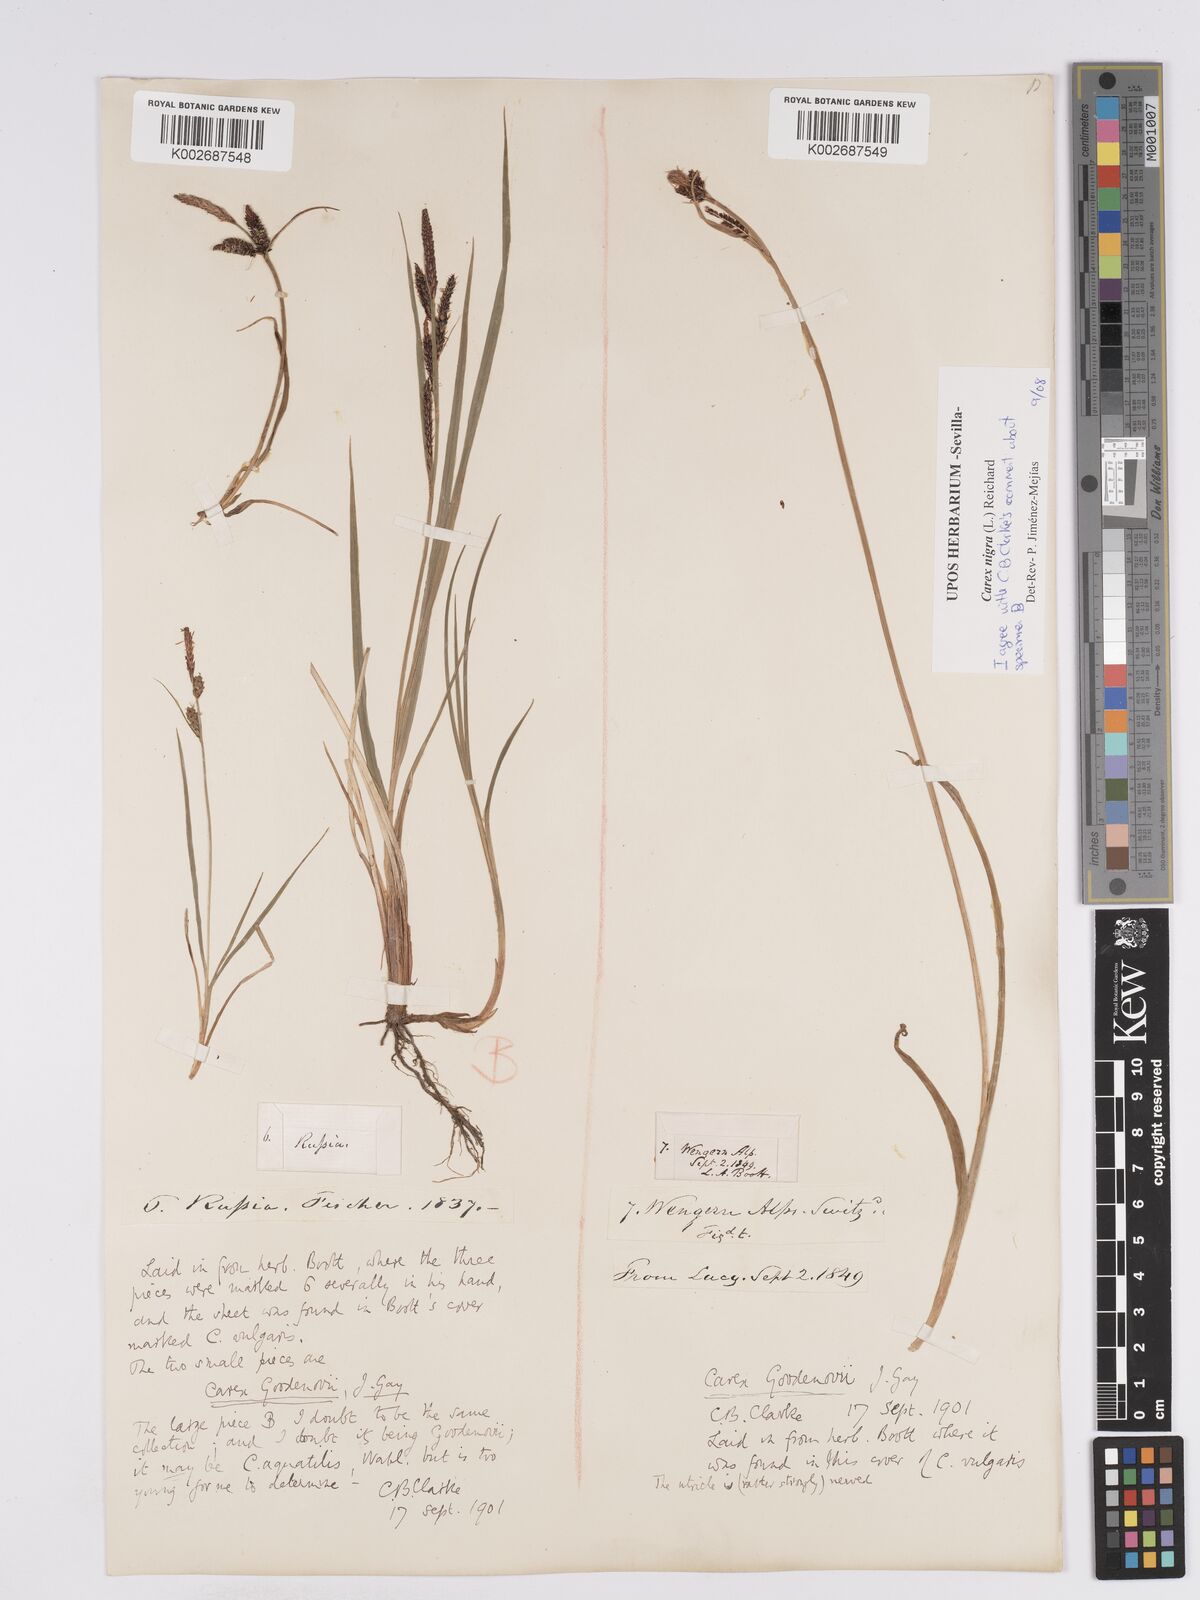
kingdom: Plantae
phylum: Tracheophyta
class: Liliopsida
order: Poales
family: Cyperaceae
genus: Carex
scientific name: Carex nigra
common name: Common sedge
